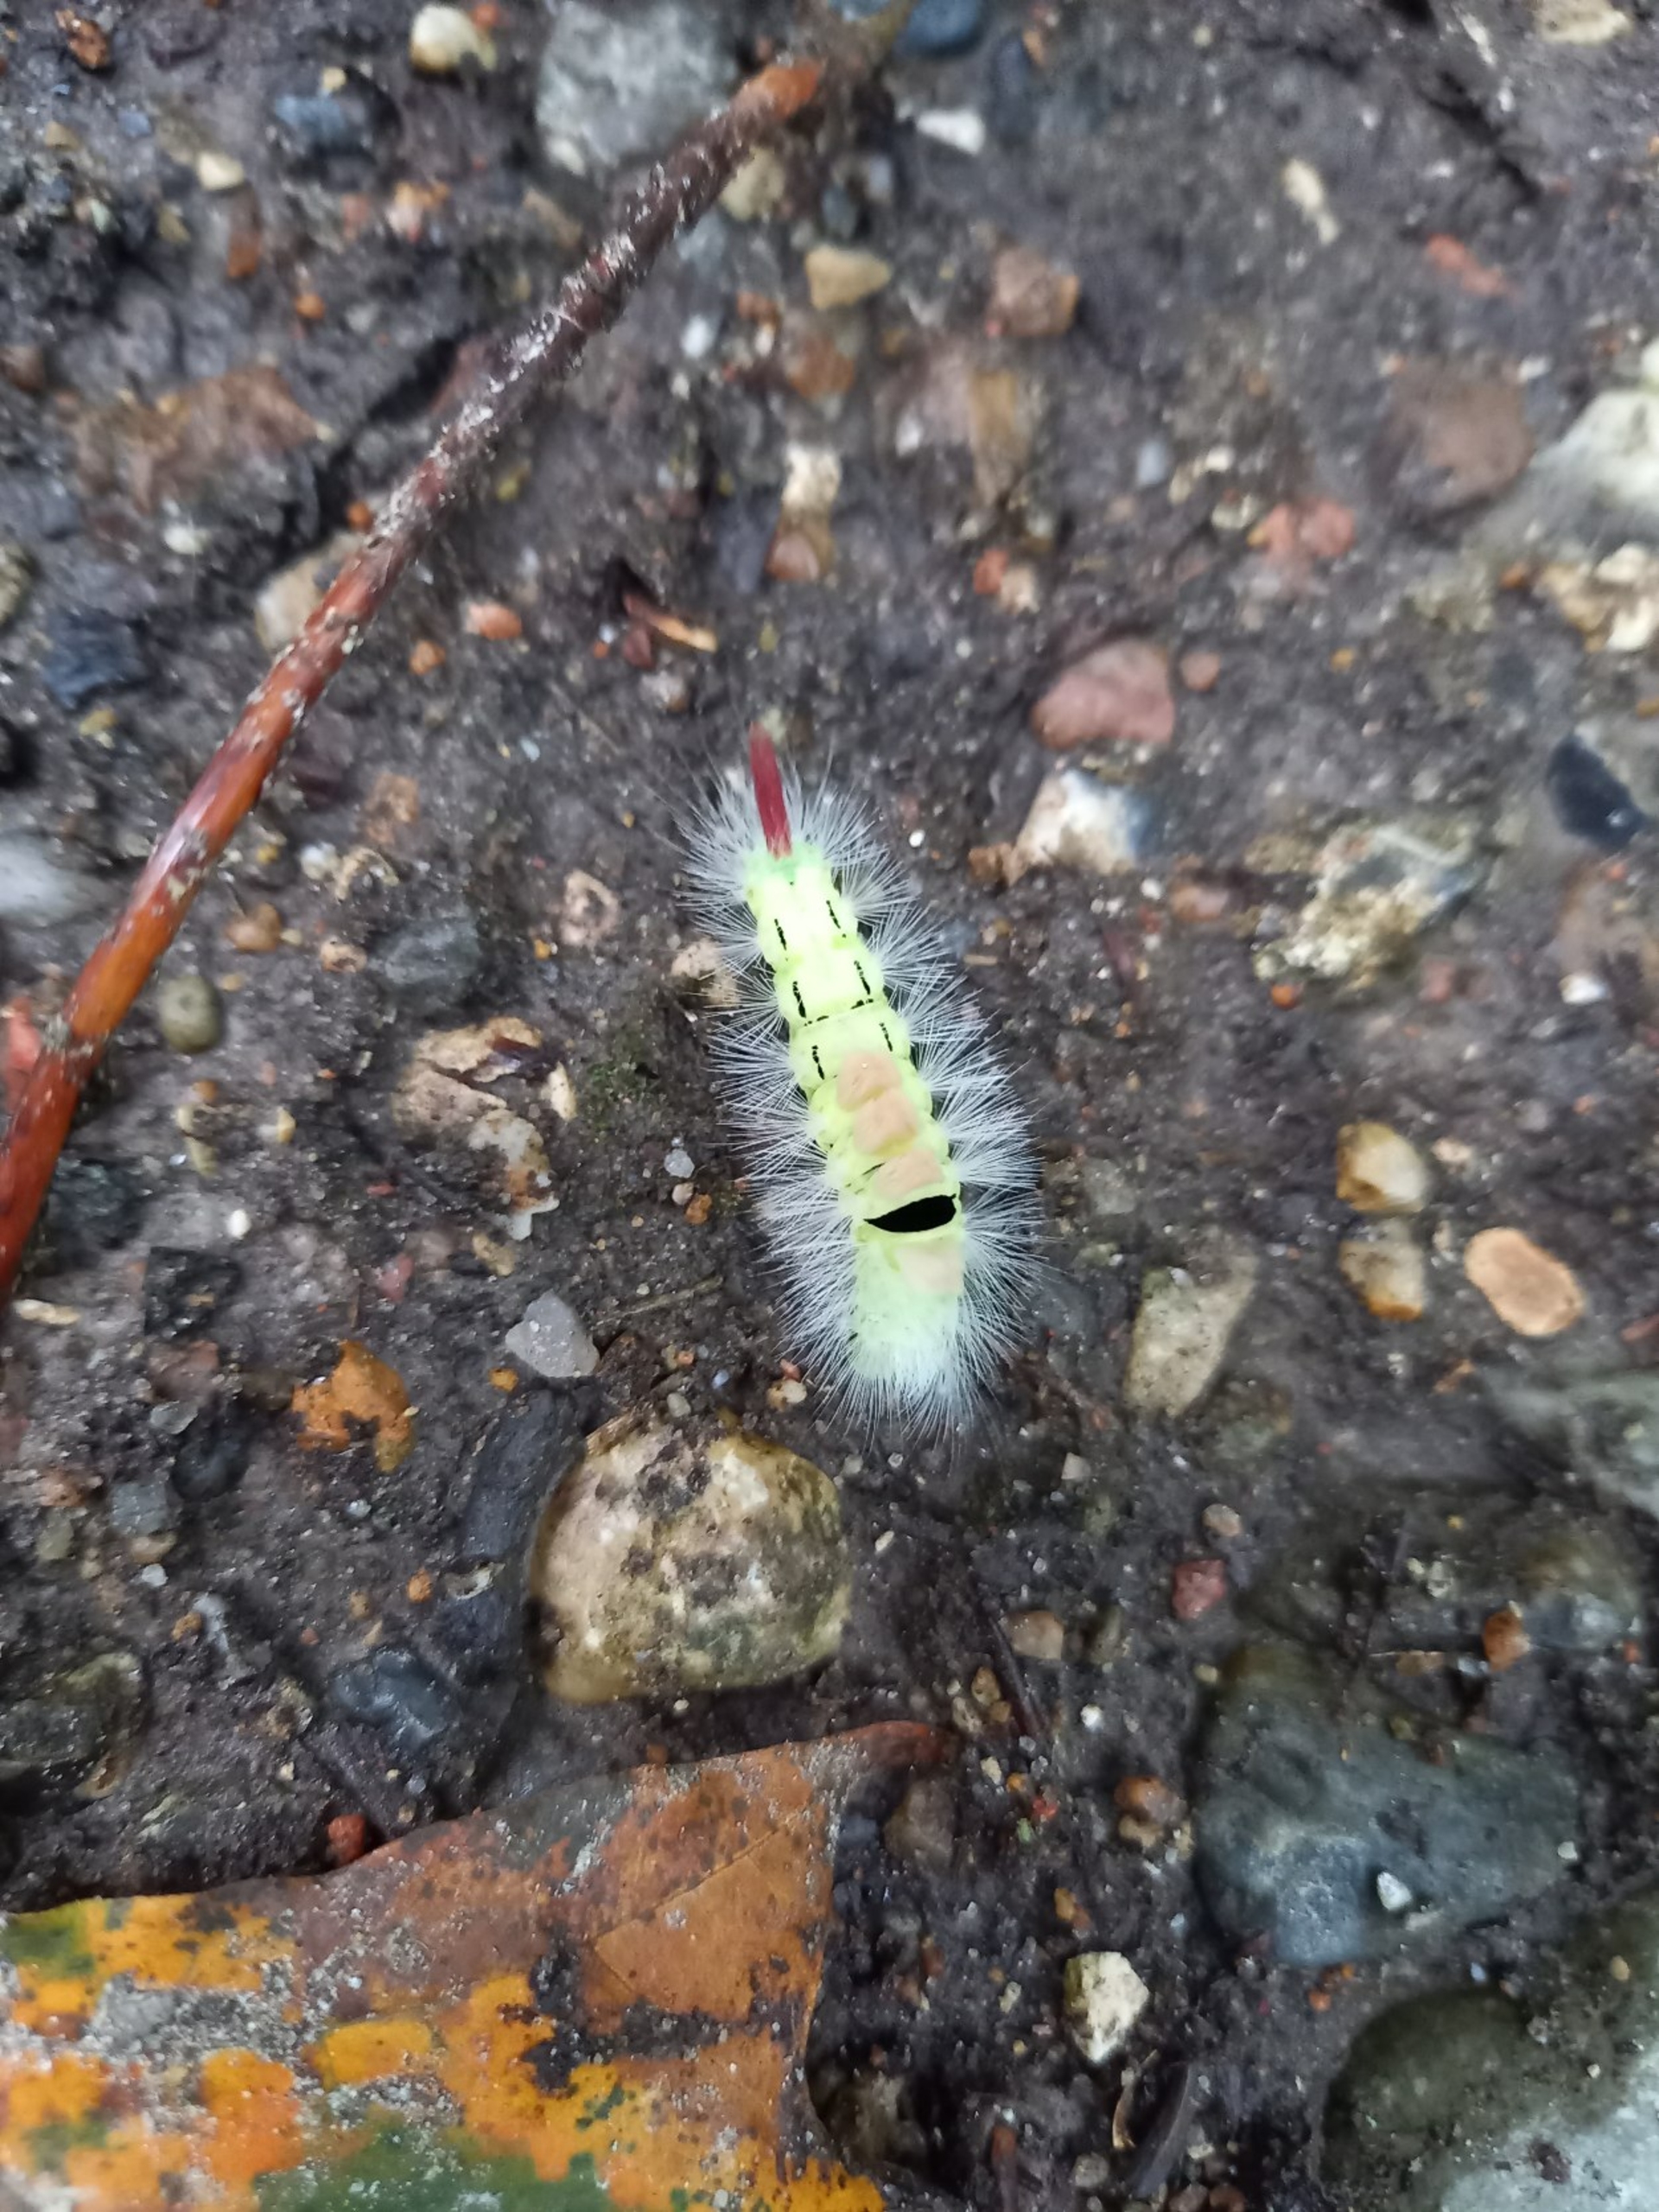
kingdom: Animalia
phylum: Arthropoda
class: Insecta
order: Lepidoptera
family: Erebidae
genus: Calliteara
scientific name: Calliteara pudibunda
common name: Bøgenonne
